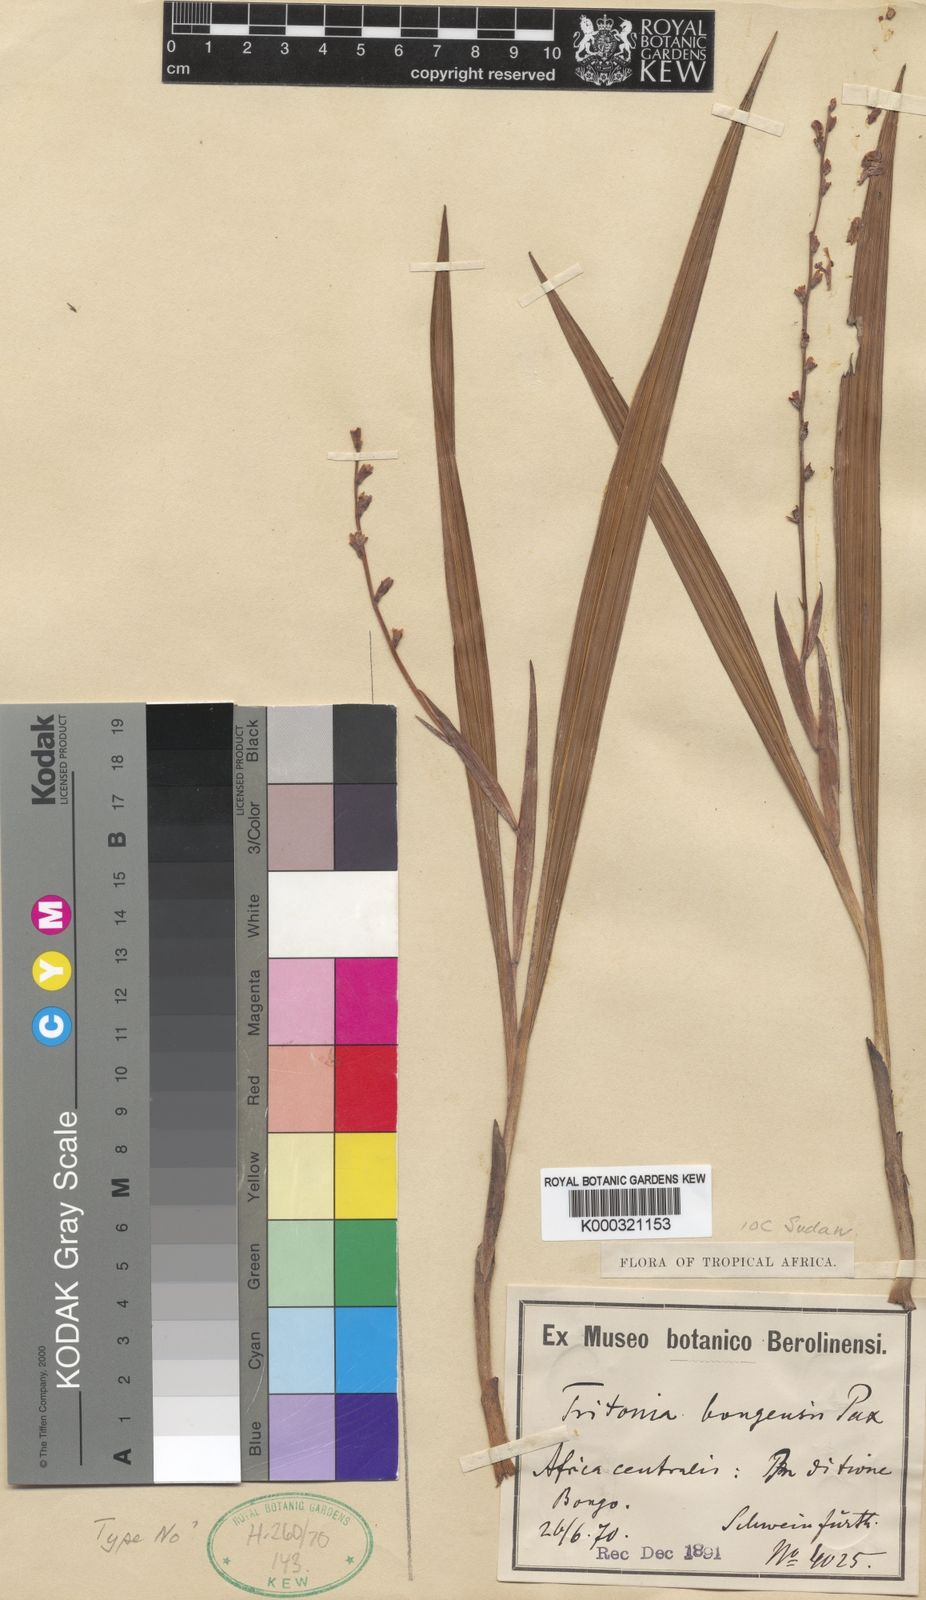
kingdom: Plantae
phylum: Tracheophyta
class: Liliopsida
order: Asparagales
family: Iridaceae
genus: Zygotritonia
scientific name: Zygotritonia bongensis
